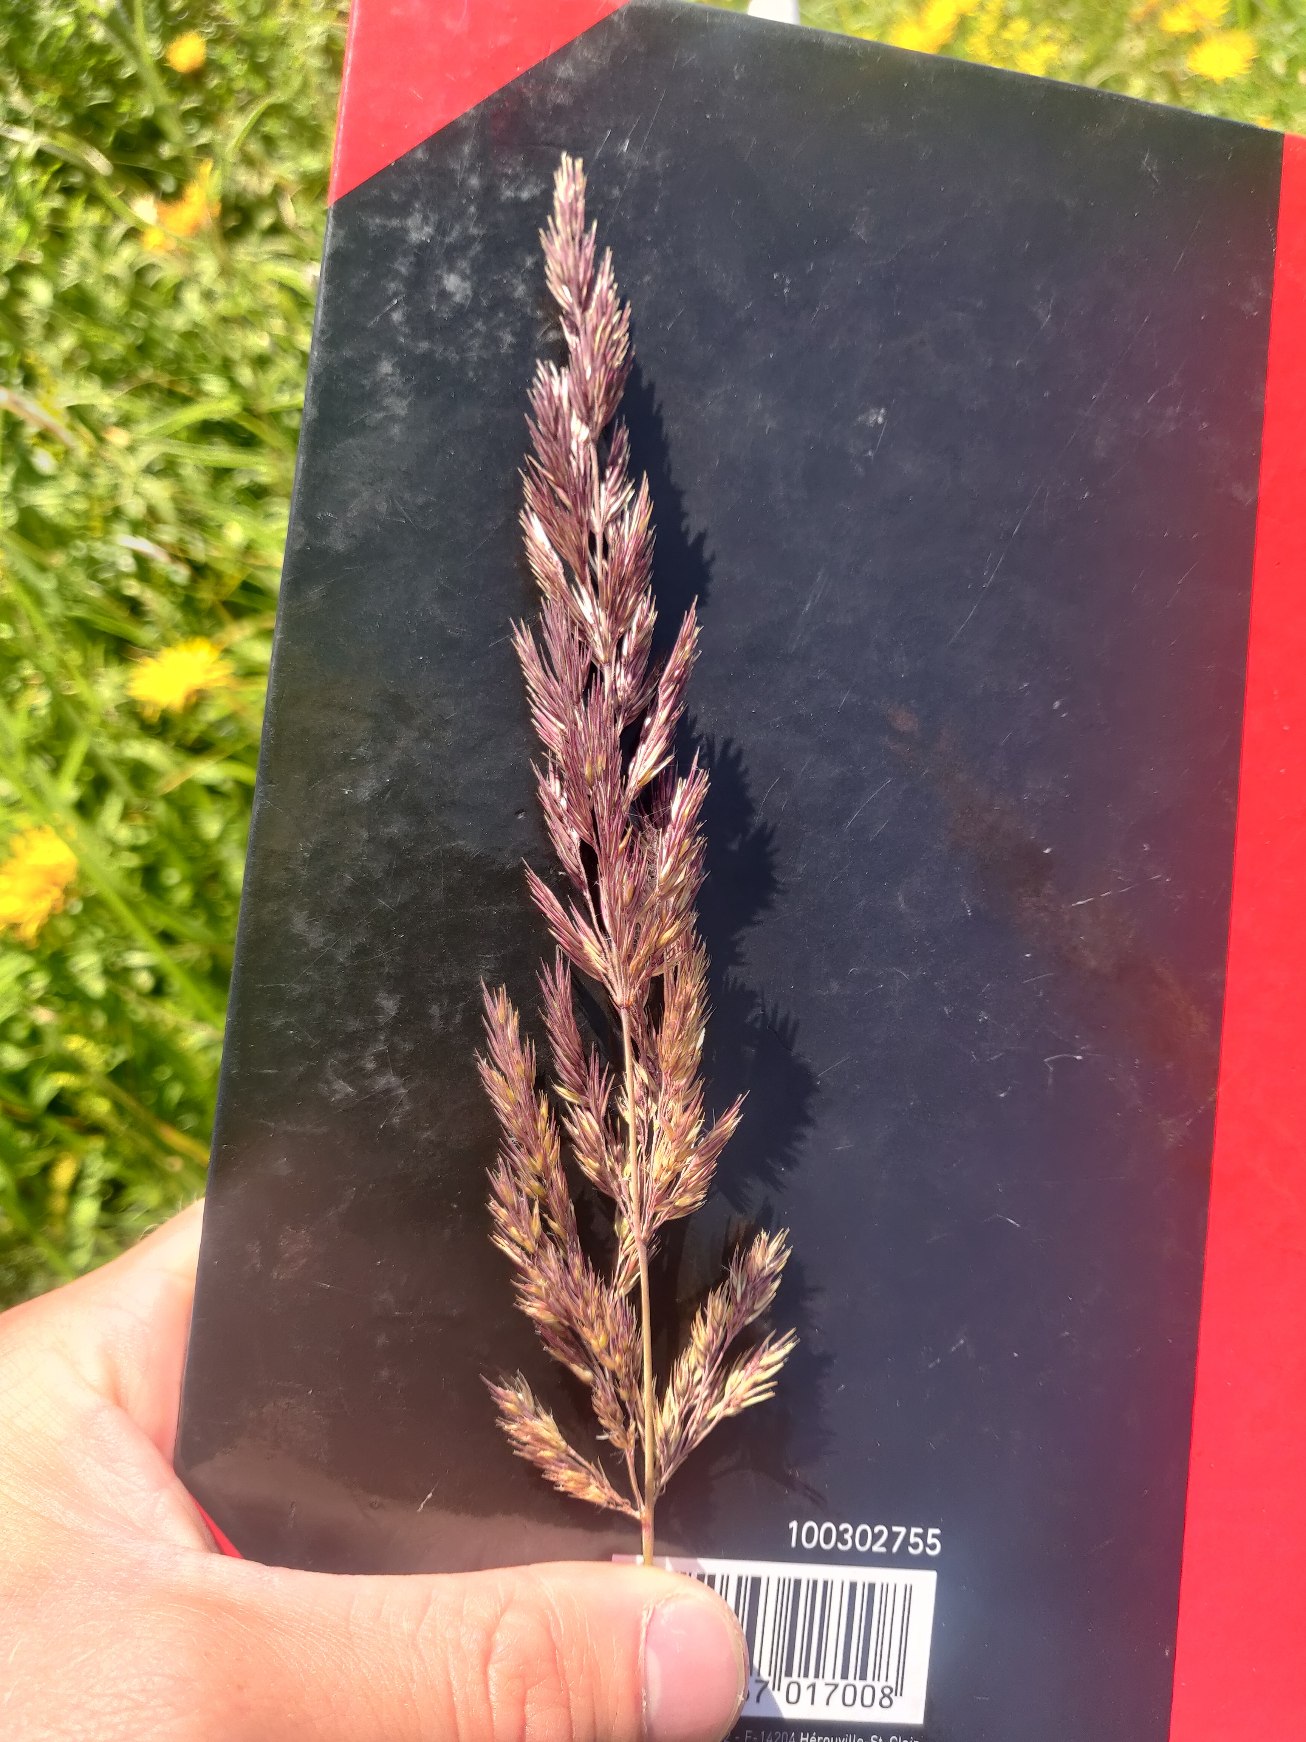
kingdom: Plantae
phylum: Tracheophyta
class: Liliopsida
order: Poales
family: Poaceae
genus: Calamagrostis
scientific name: Calamagrostis epigejos
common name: Bjerg-rørhvene
